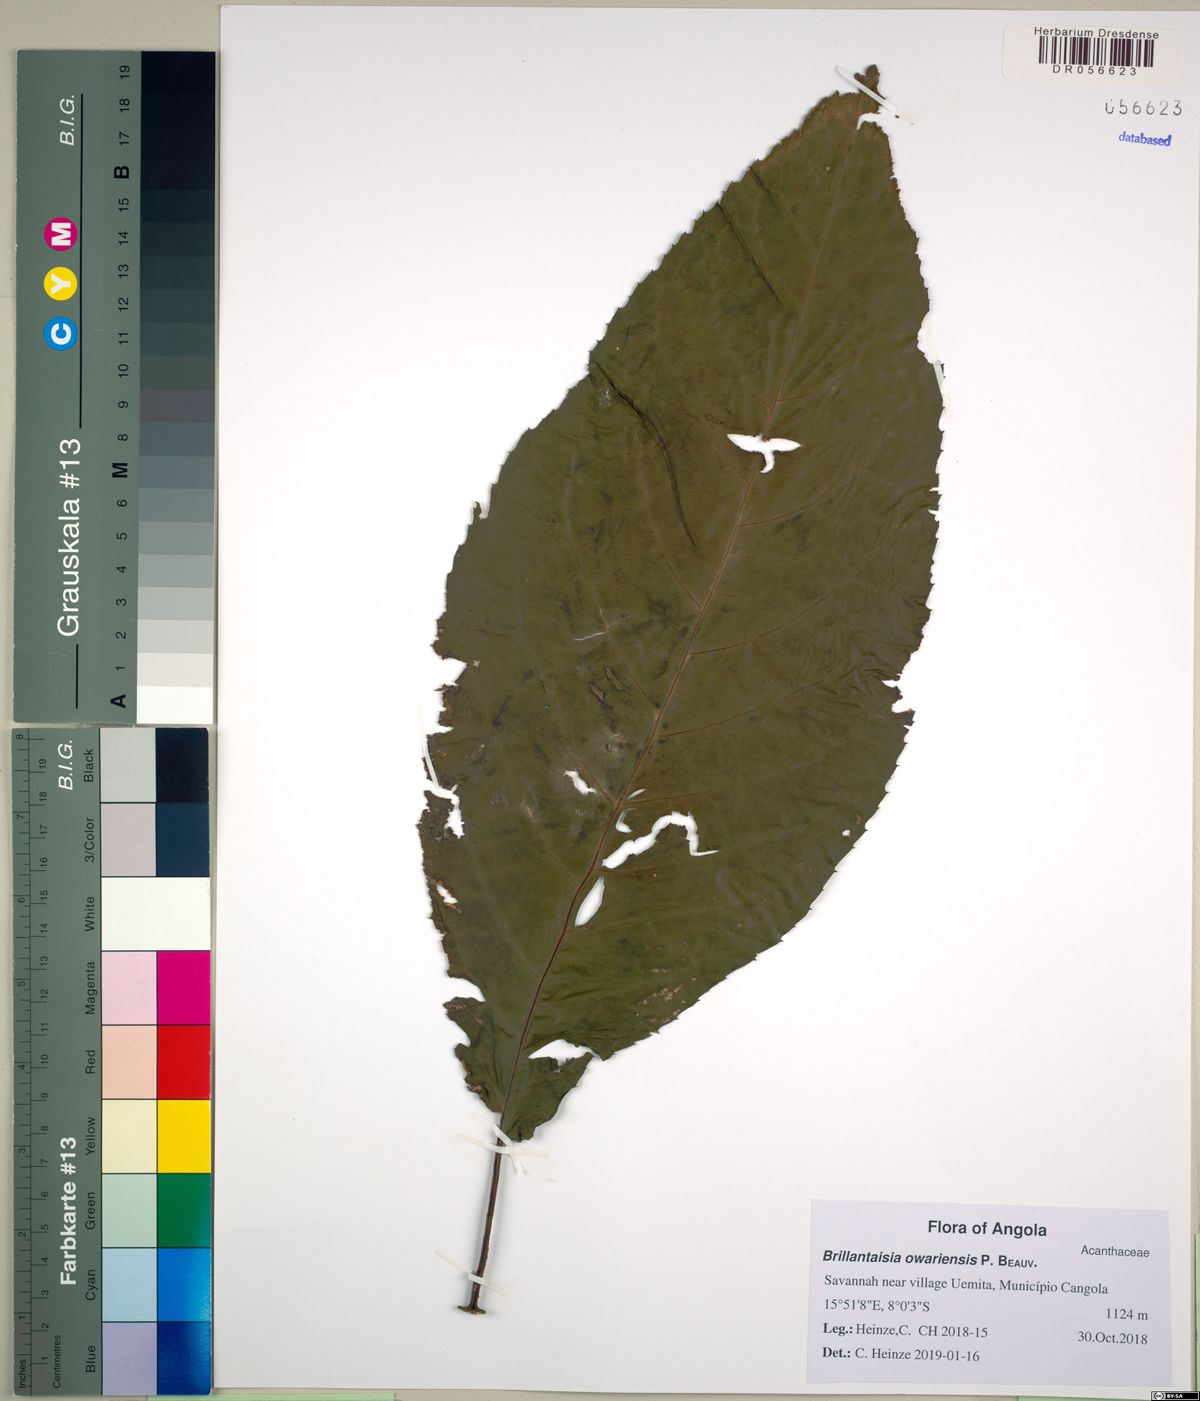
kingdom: Plantae
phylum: Tracheophyta
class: Magnoliopsida
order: Lamiales
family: Acanthaceae
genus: Brillantaisia
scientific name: Brillantaisia owariensis
